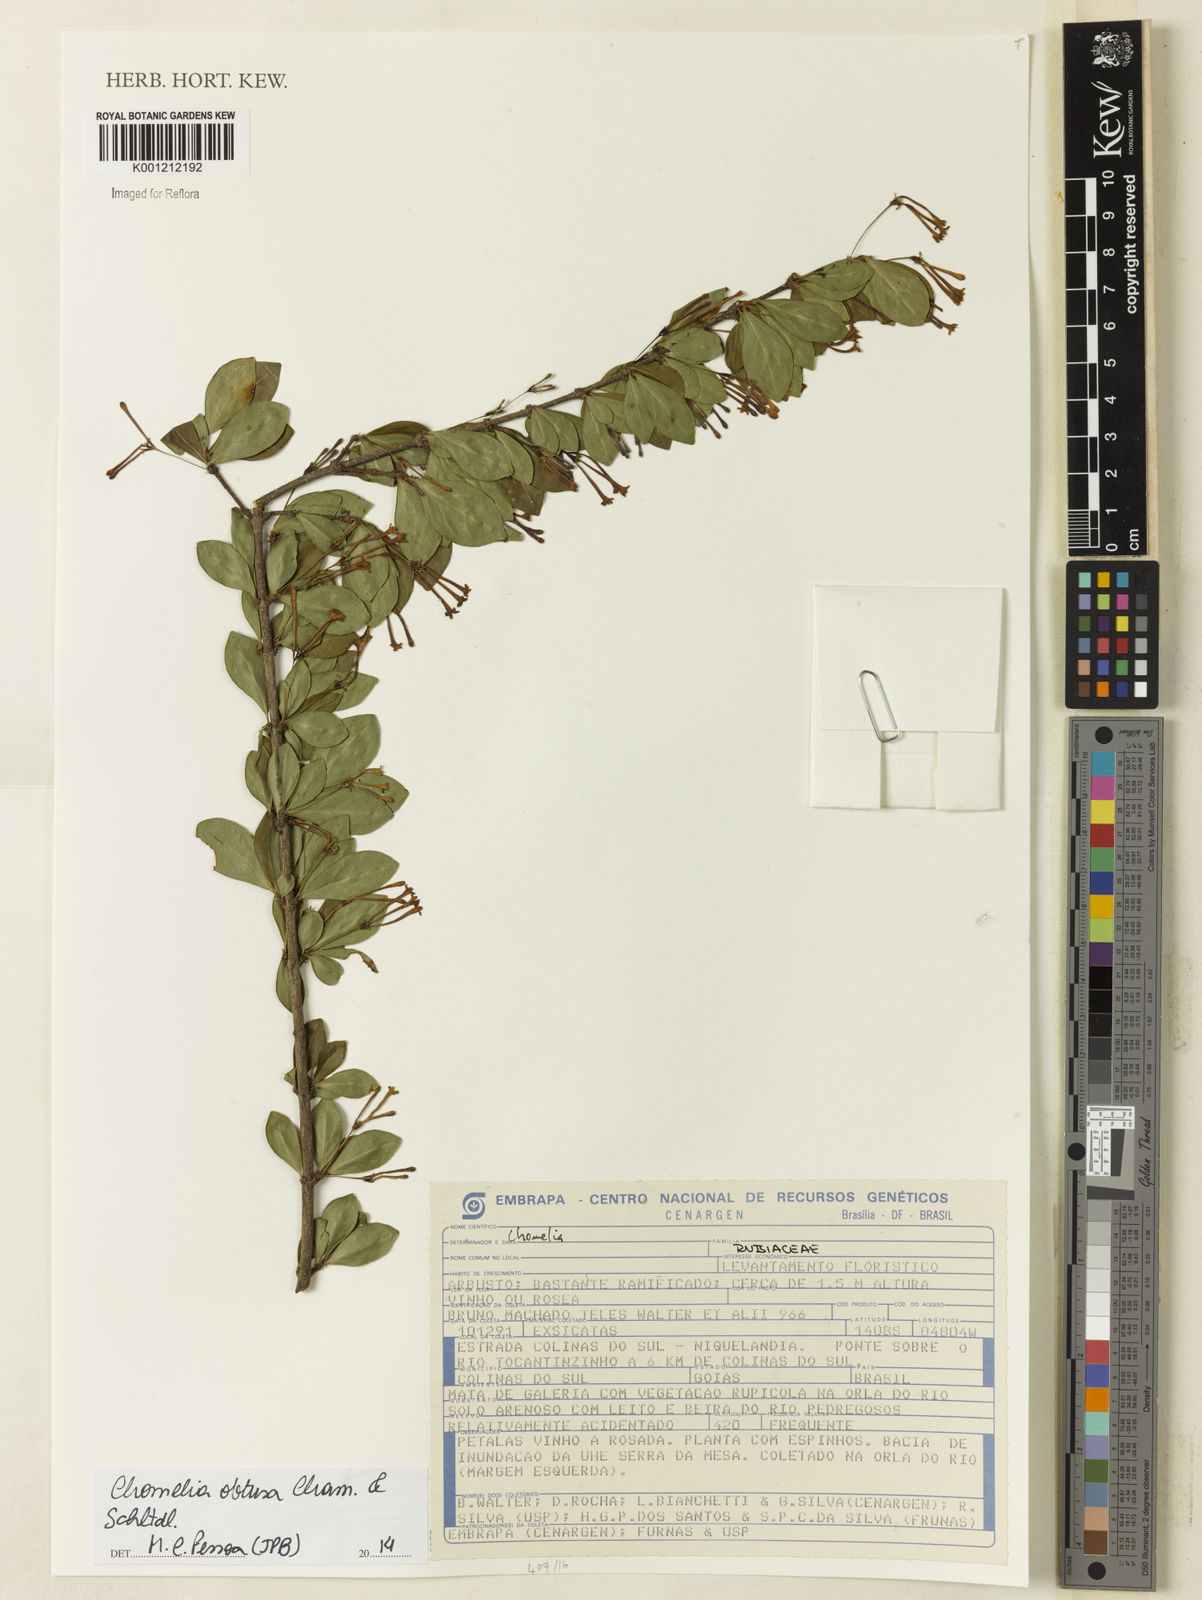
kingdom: Plantae
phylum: Tracheophyta
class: Magnoliopsida
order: Gentianales
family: Rubiaceae
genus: Chomelia
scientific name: Chomelia obtusa
